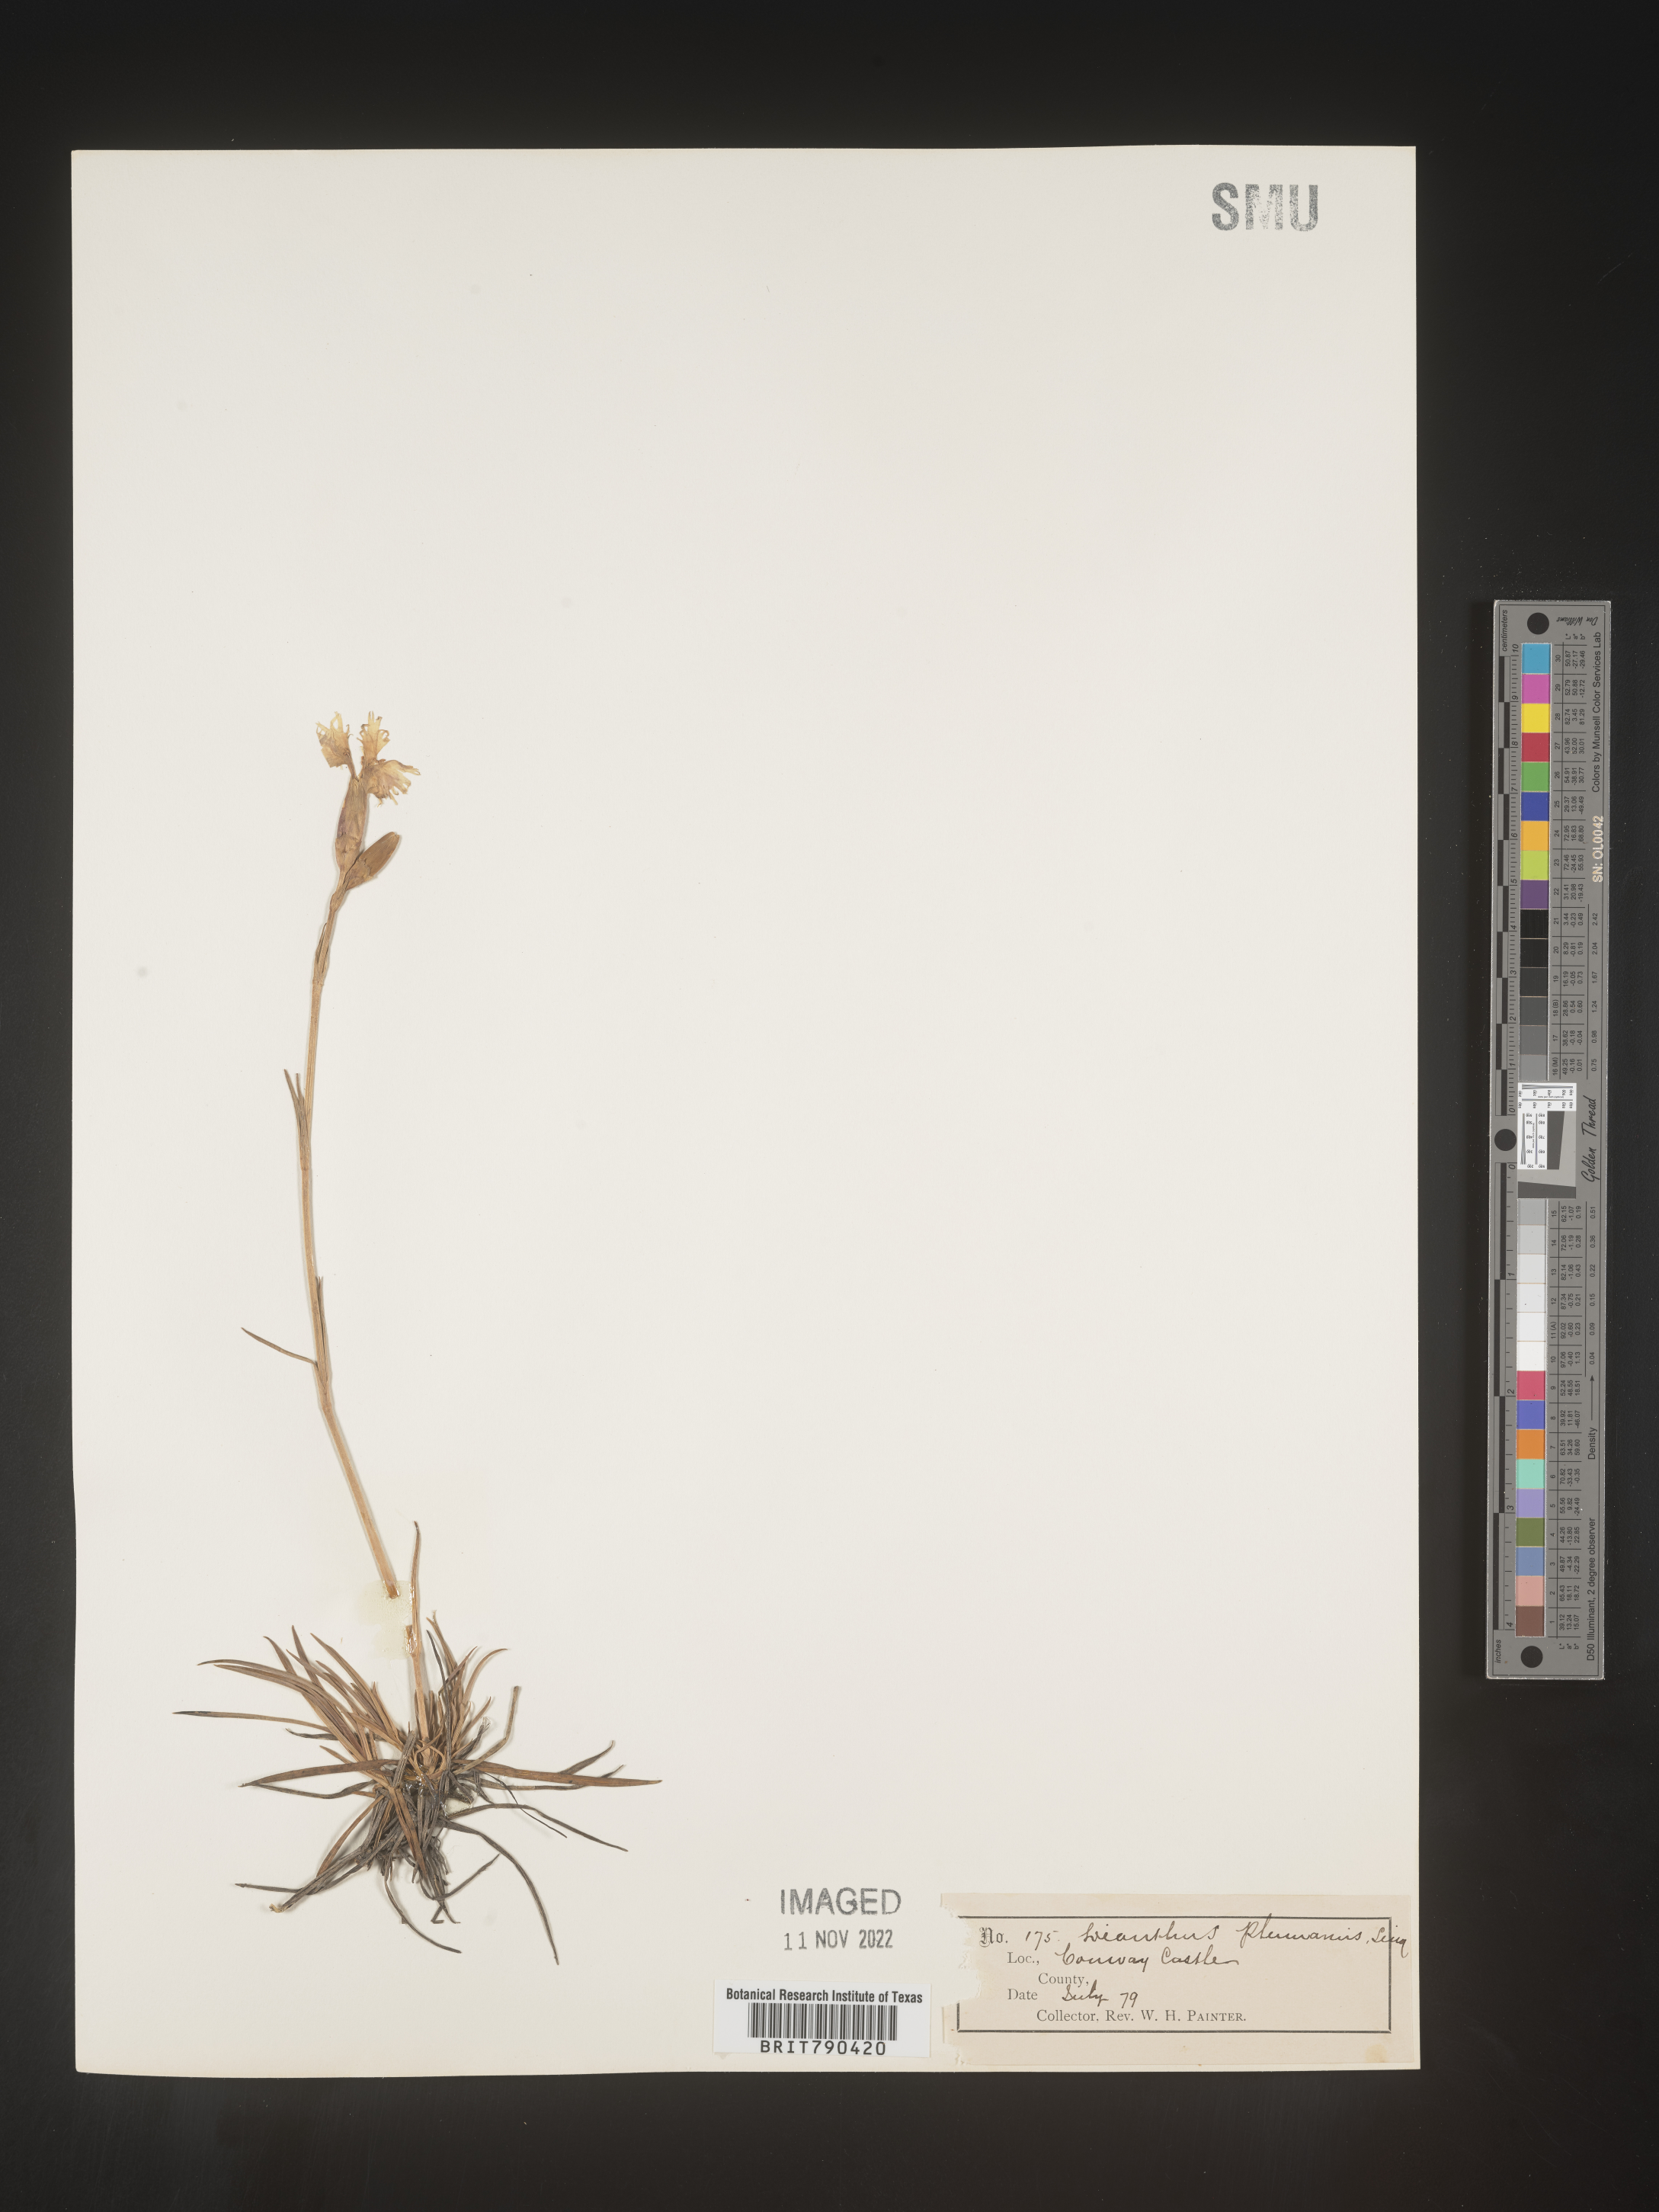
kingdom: Plantae
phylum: Tracheophyta
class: Magnoliopsida
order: Caryophyllales
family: Caryophyllaceae
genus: Dianthus
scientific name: Dianthus
